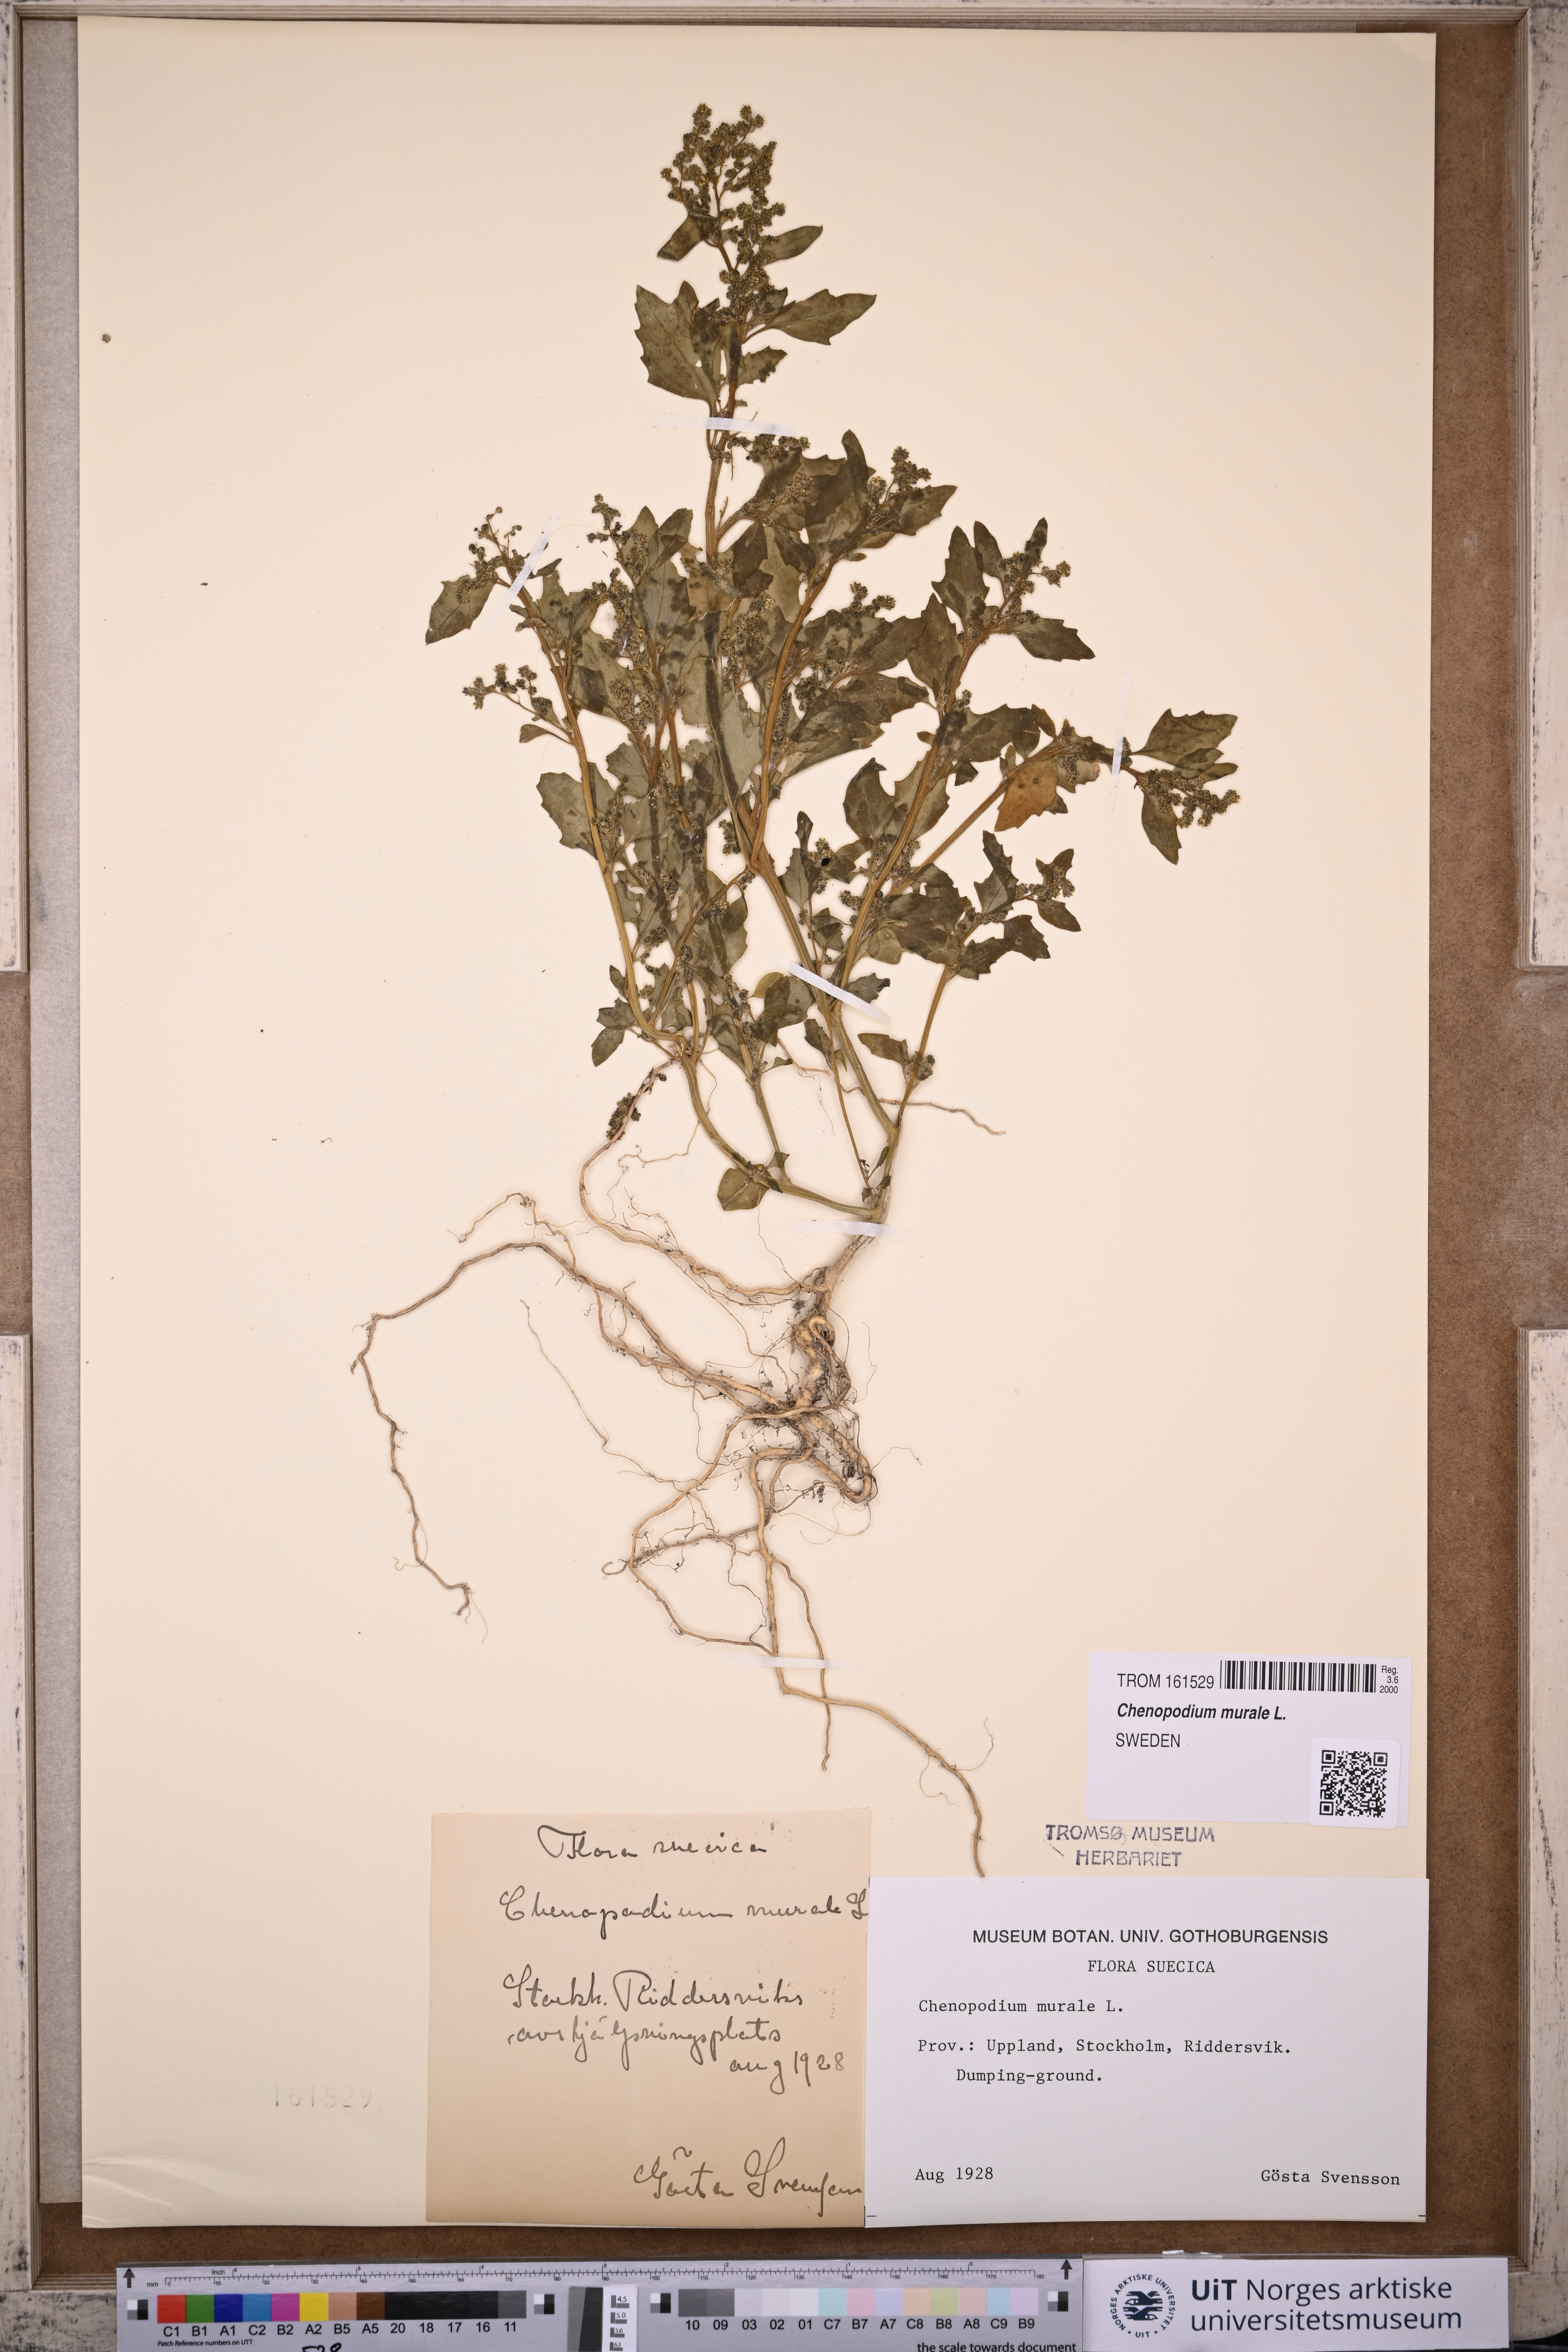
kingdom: Plantae
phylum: Tracheophyta
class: Magnoliopsida
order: Caryophyllales
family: Amaranthaceae
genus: Chenopodiastrum
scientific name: Chenopodiastrum murale
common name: Sowbane
